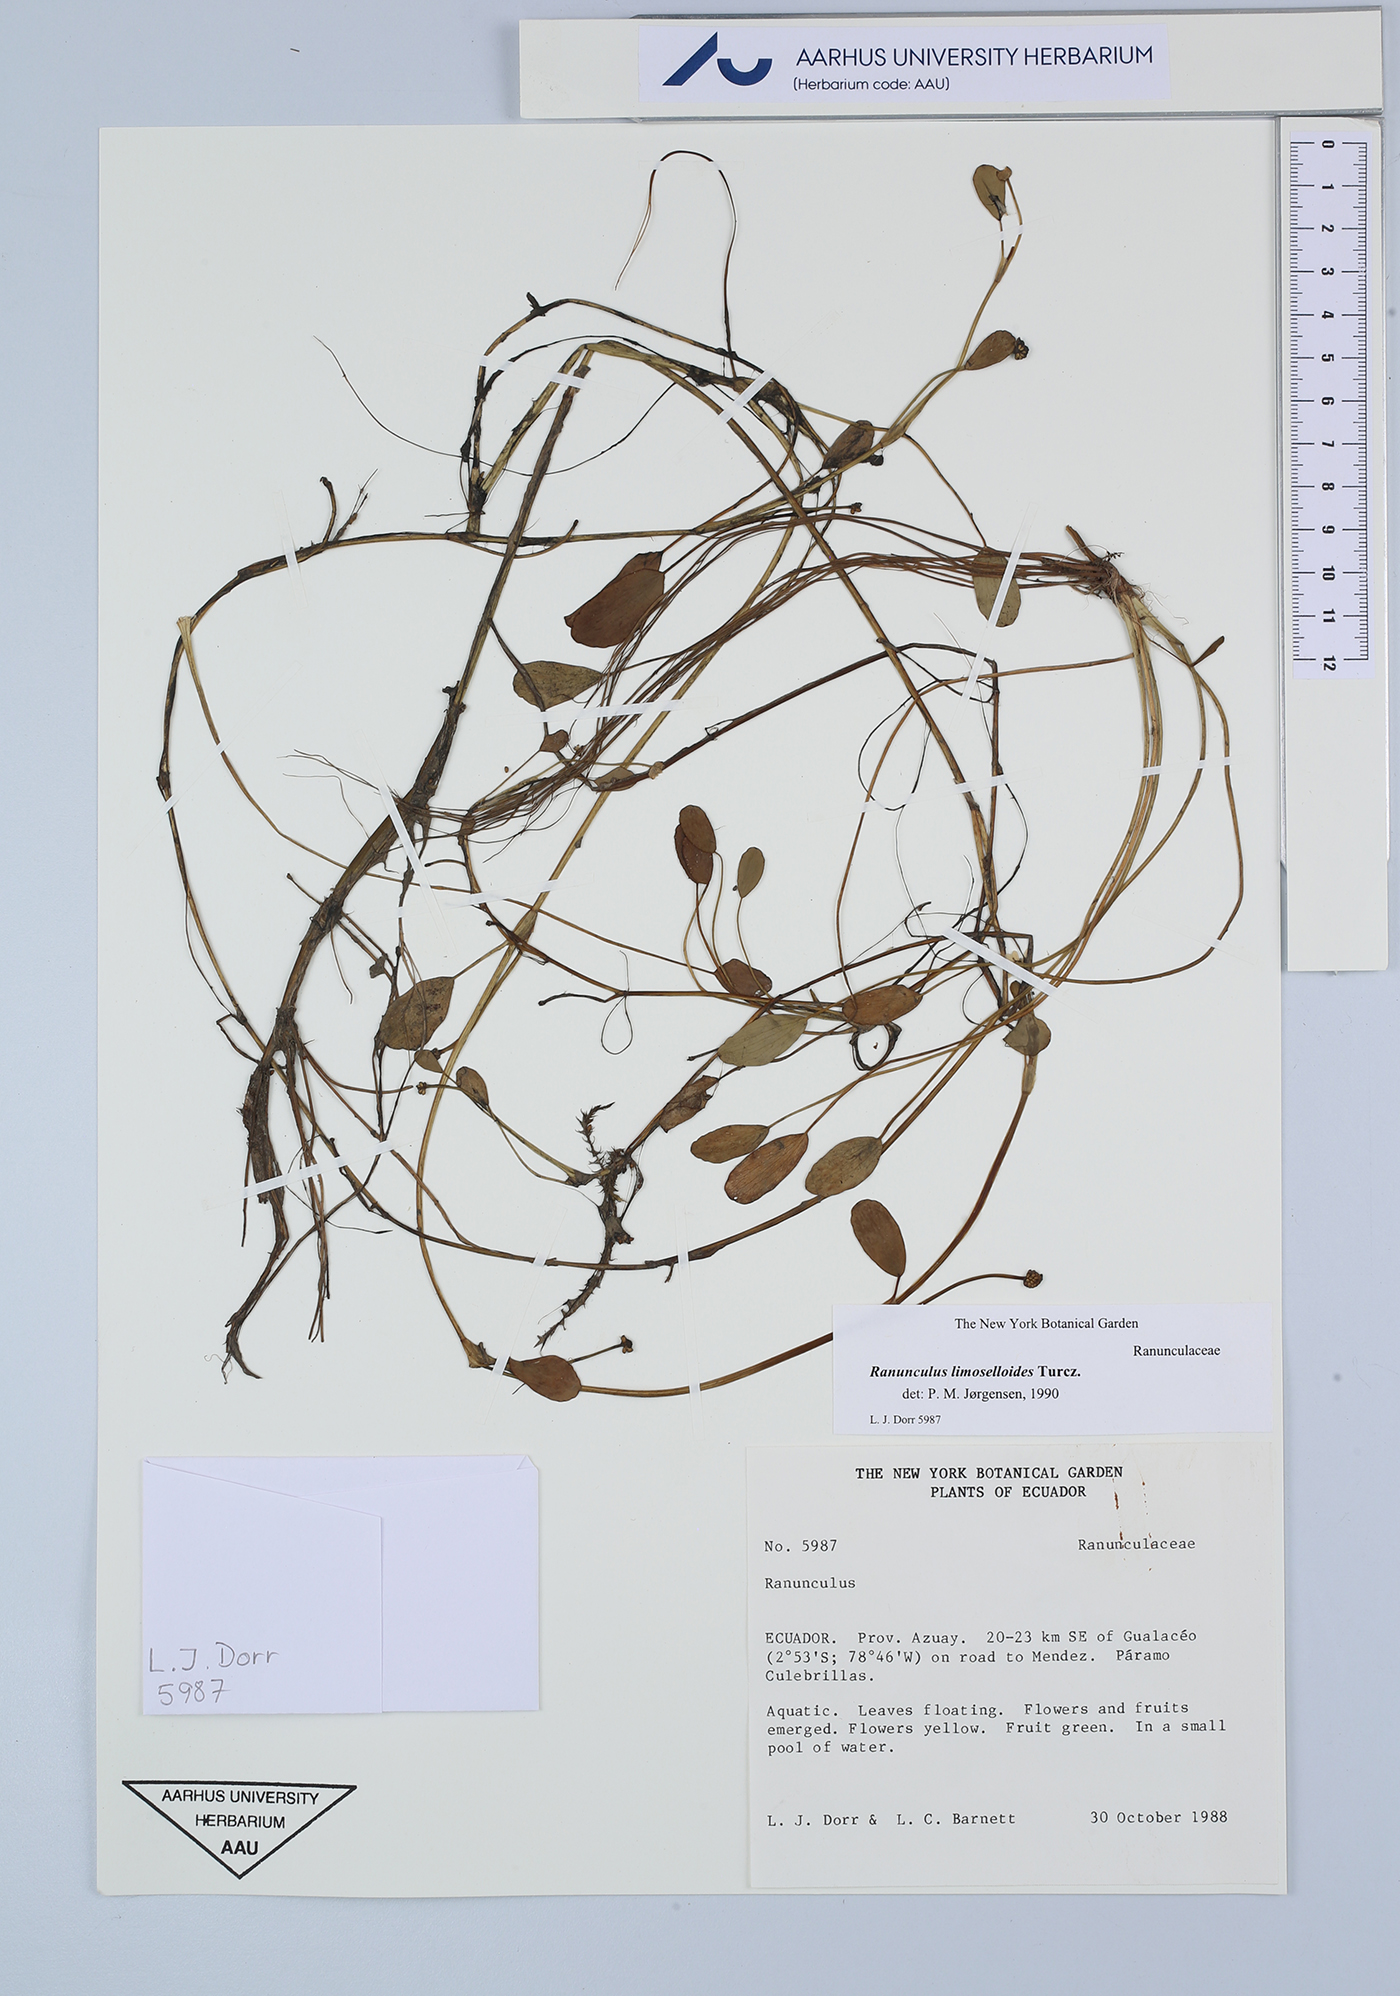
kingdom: Plantae
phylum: Tracheophyta
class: Magnoliopsida
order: Ranunculales
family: Ranunculaceae
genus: Ranunculus
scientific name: Ranunculus limoselloides
